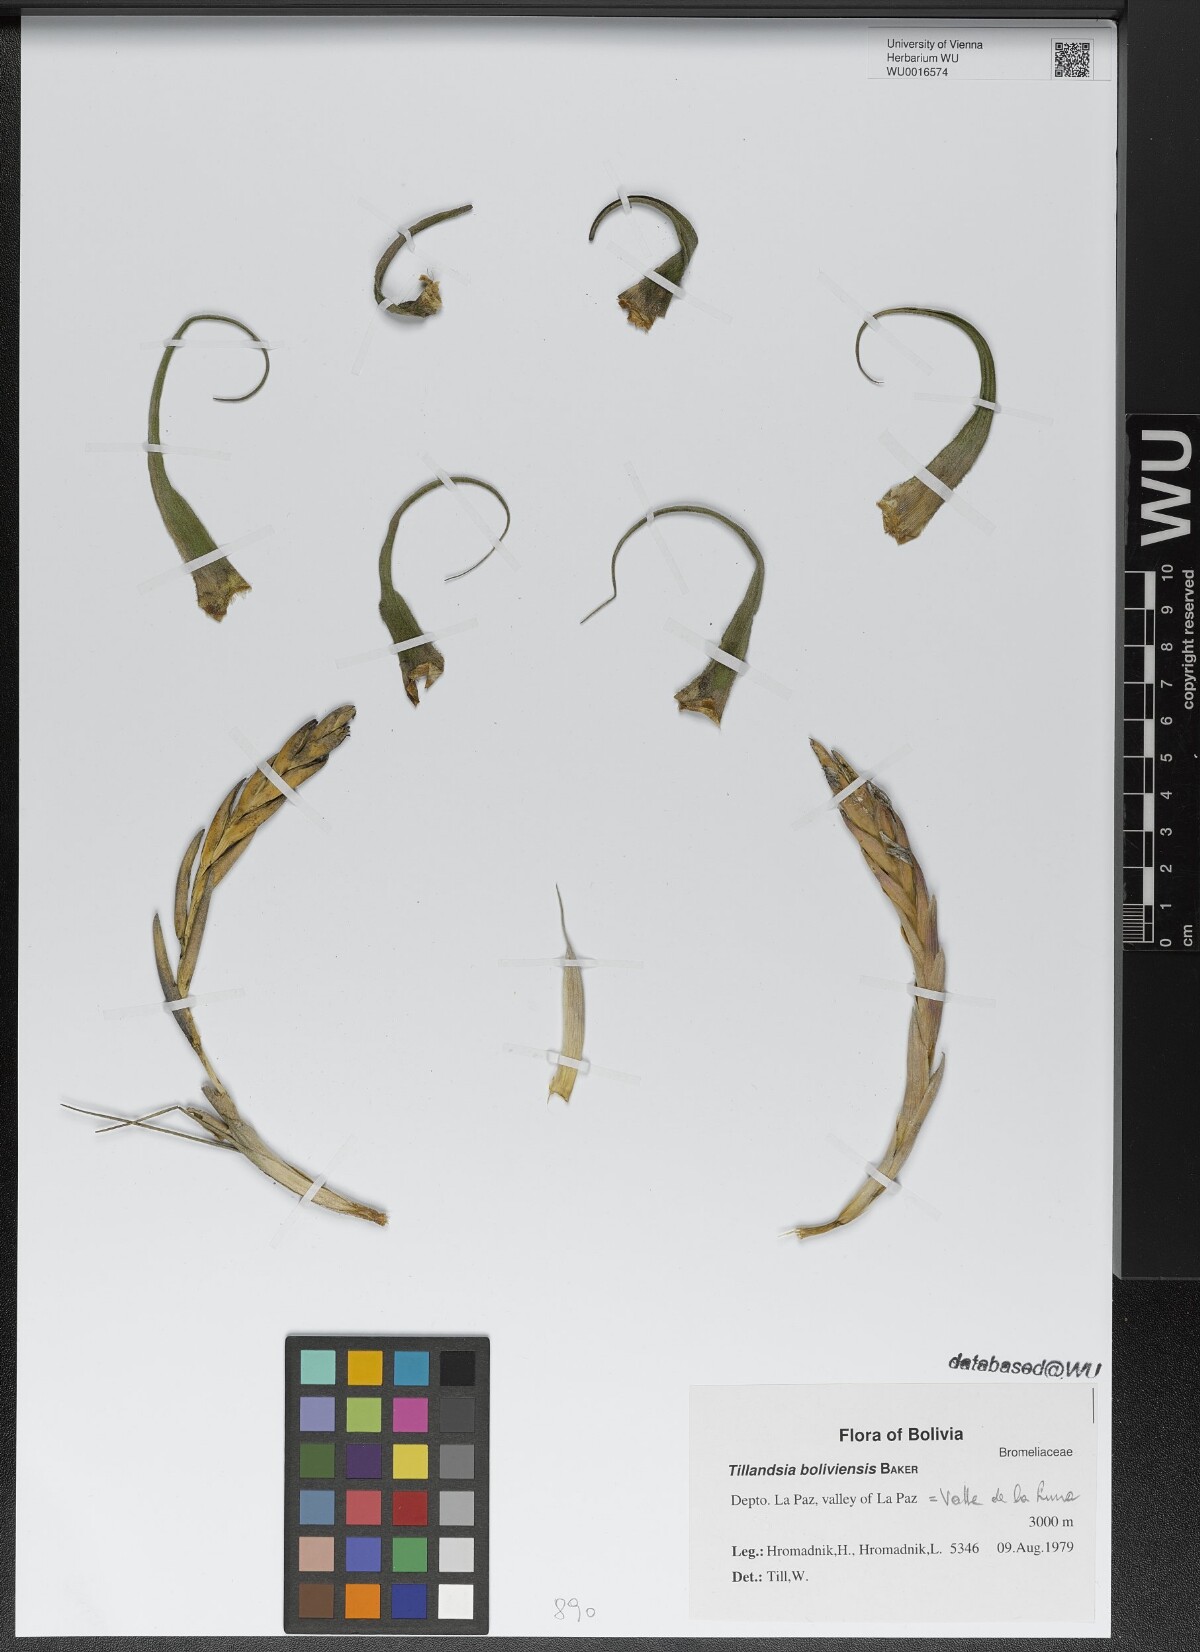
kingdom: Plantae
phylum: Tracheophyta
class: Liliopsida
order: Poales
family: Bromeliaceae
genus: Tillandsia
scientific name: Tillandsia paraensis
